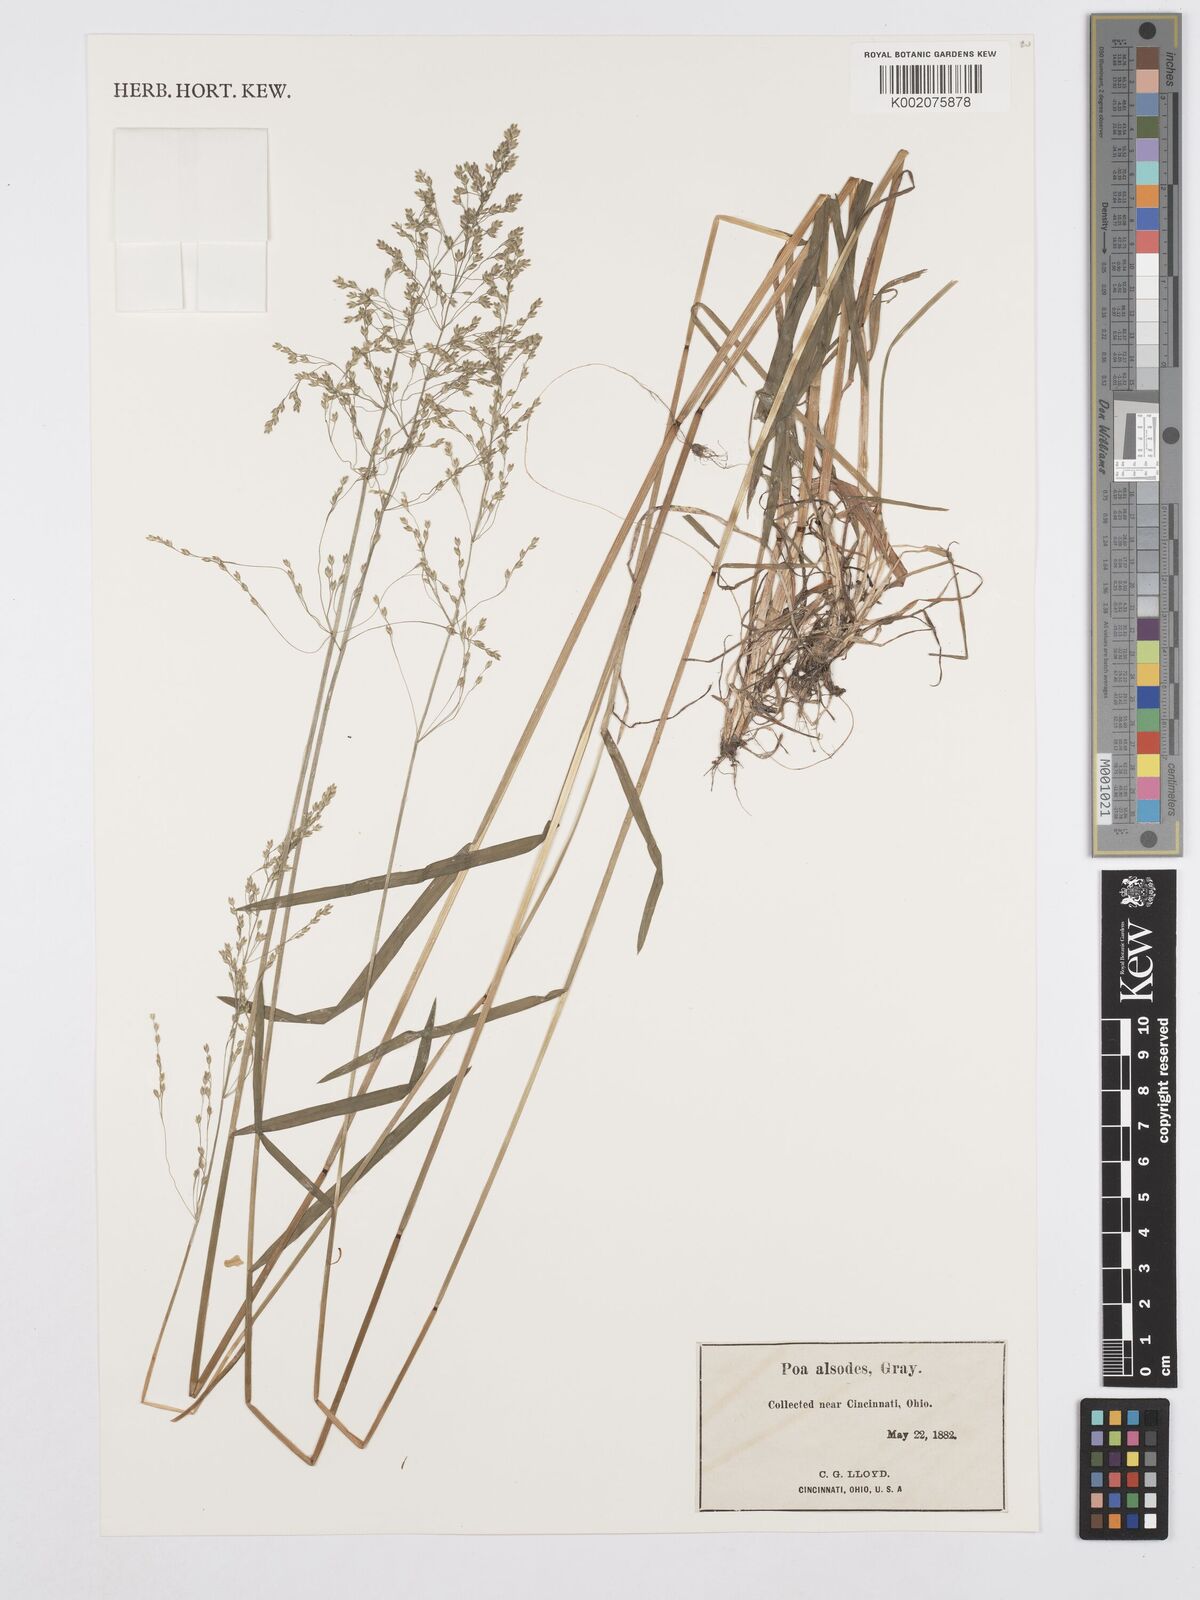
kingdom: Plantae
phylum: Tracheophyta
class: Liliopsida
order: Poales
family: Poaceae
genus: Poa
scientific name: Poa alsodes
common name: Grove bluegrass
